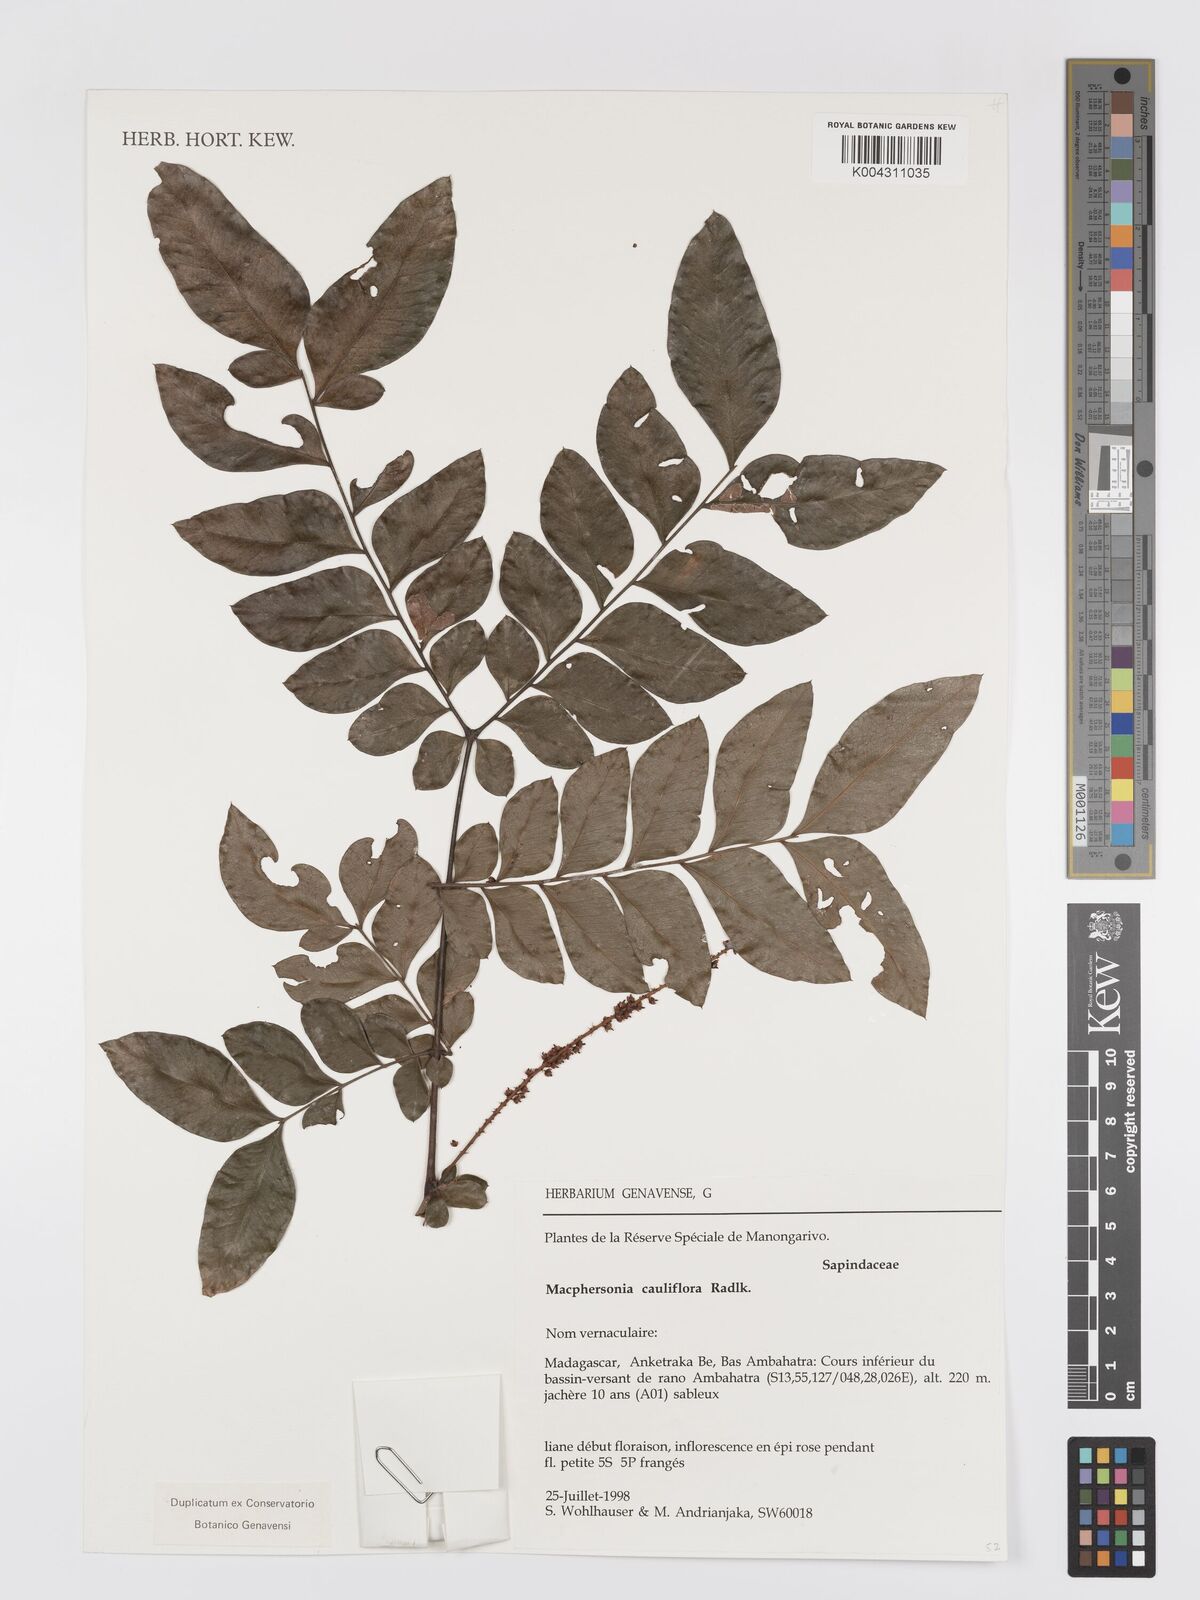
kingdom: Plantae
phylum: Tracheophyta
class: Magnoliopsida
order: Sapindales
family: Sapindaceae
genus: Macphersonia
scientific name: Macphersonia cauliflora
